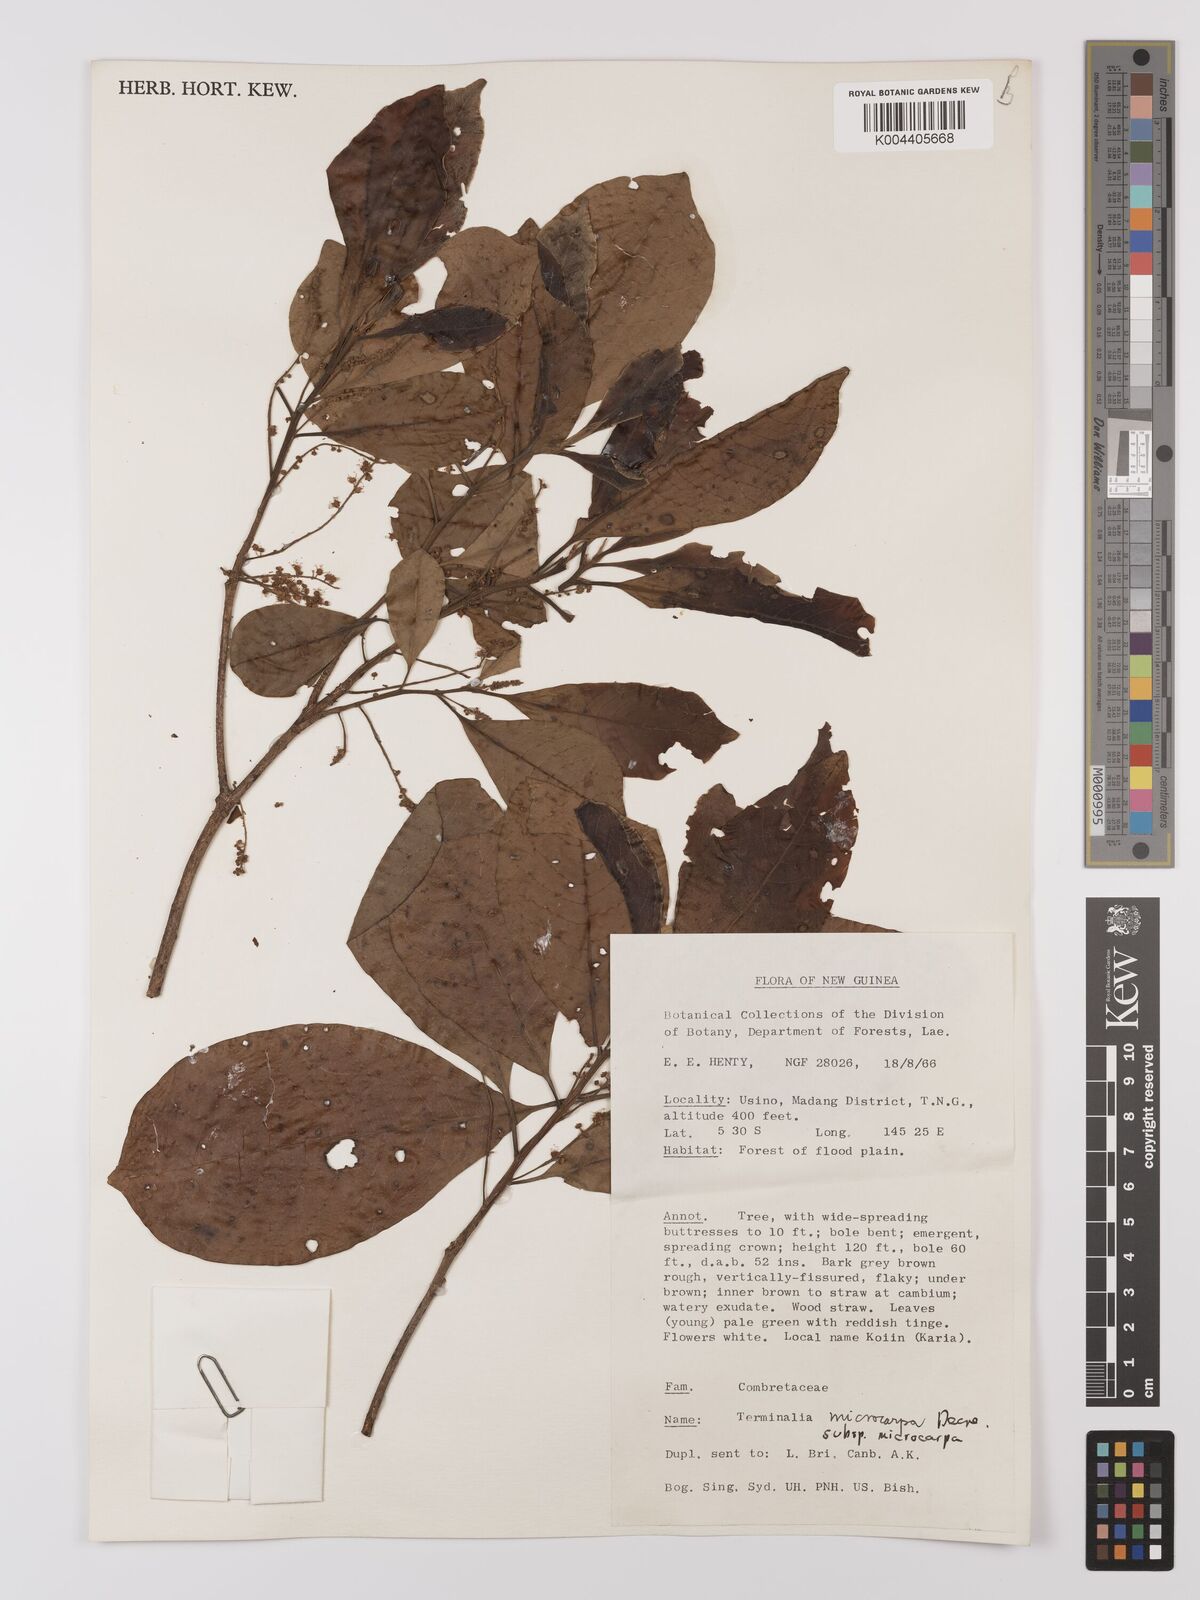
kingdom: Plantae
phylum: Tracheophyta
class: Magnoliopsida
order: Myrtales
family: Combretaceae
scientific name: Combretaceae
